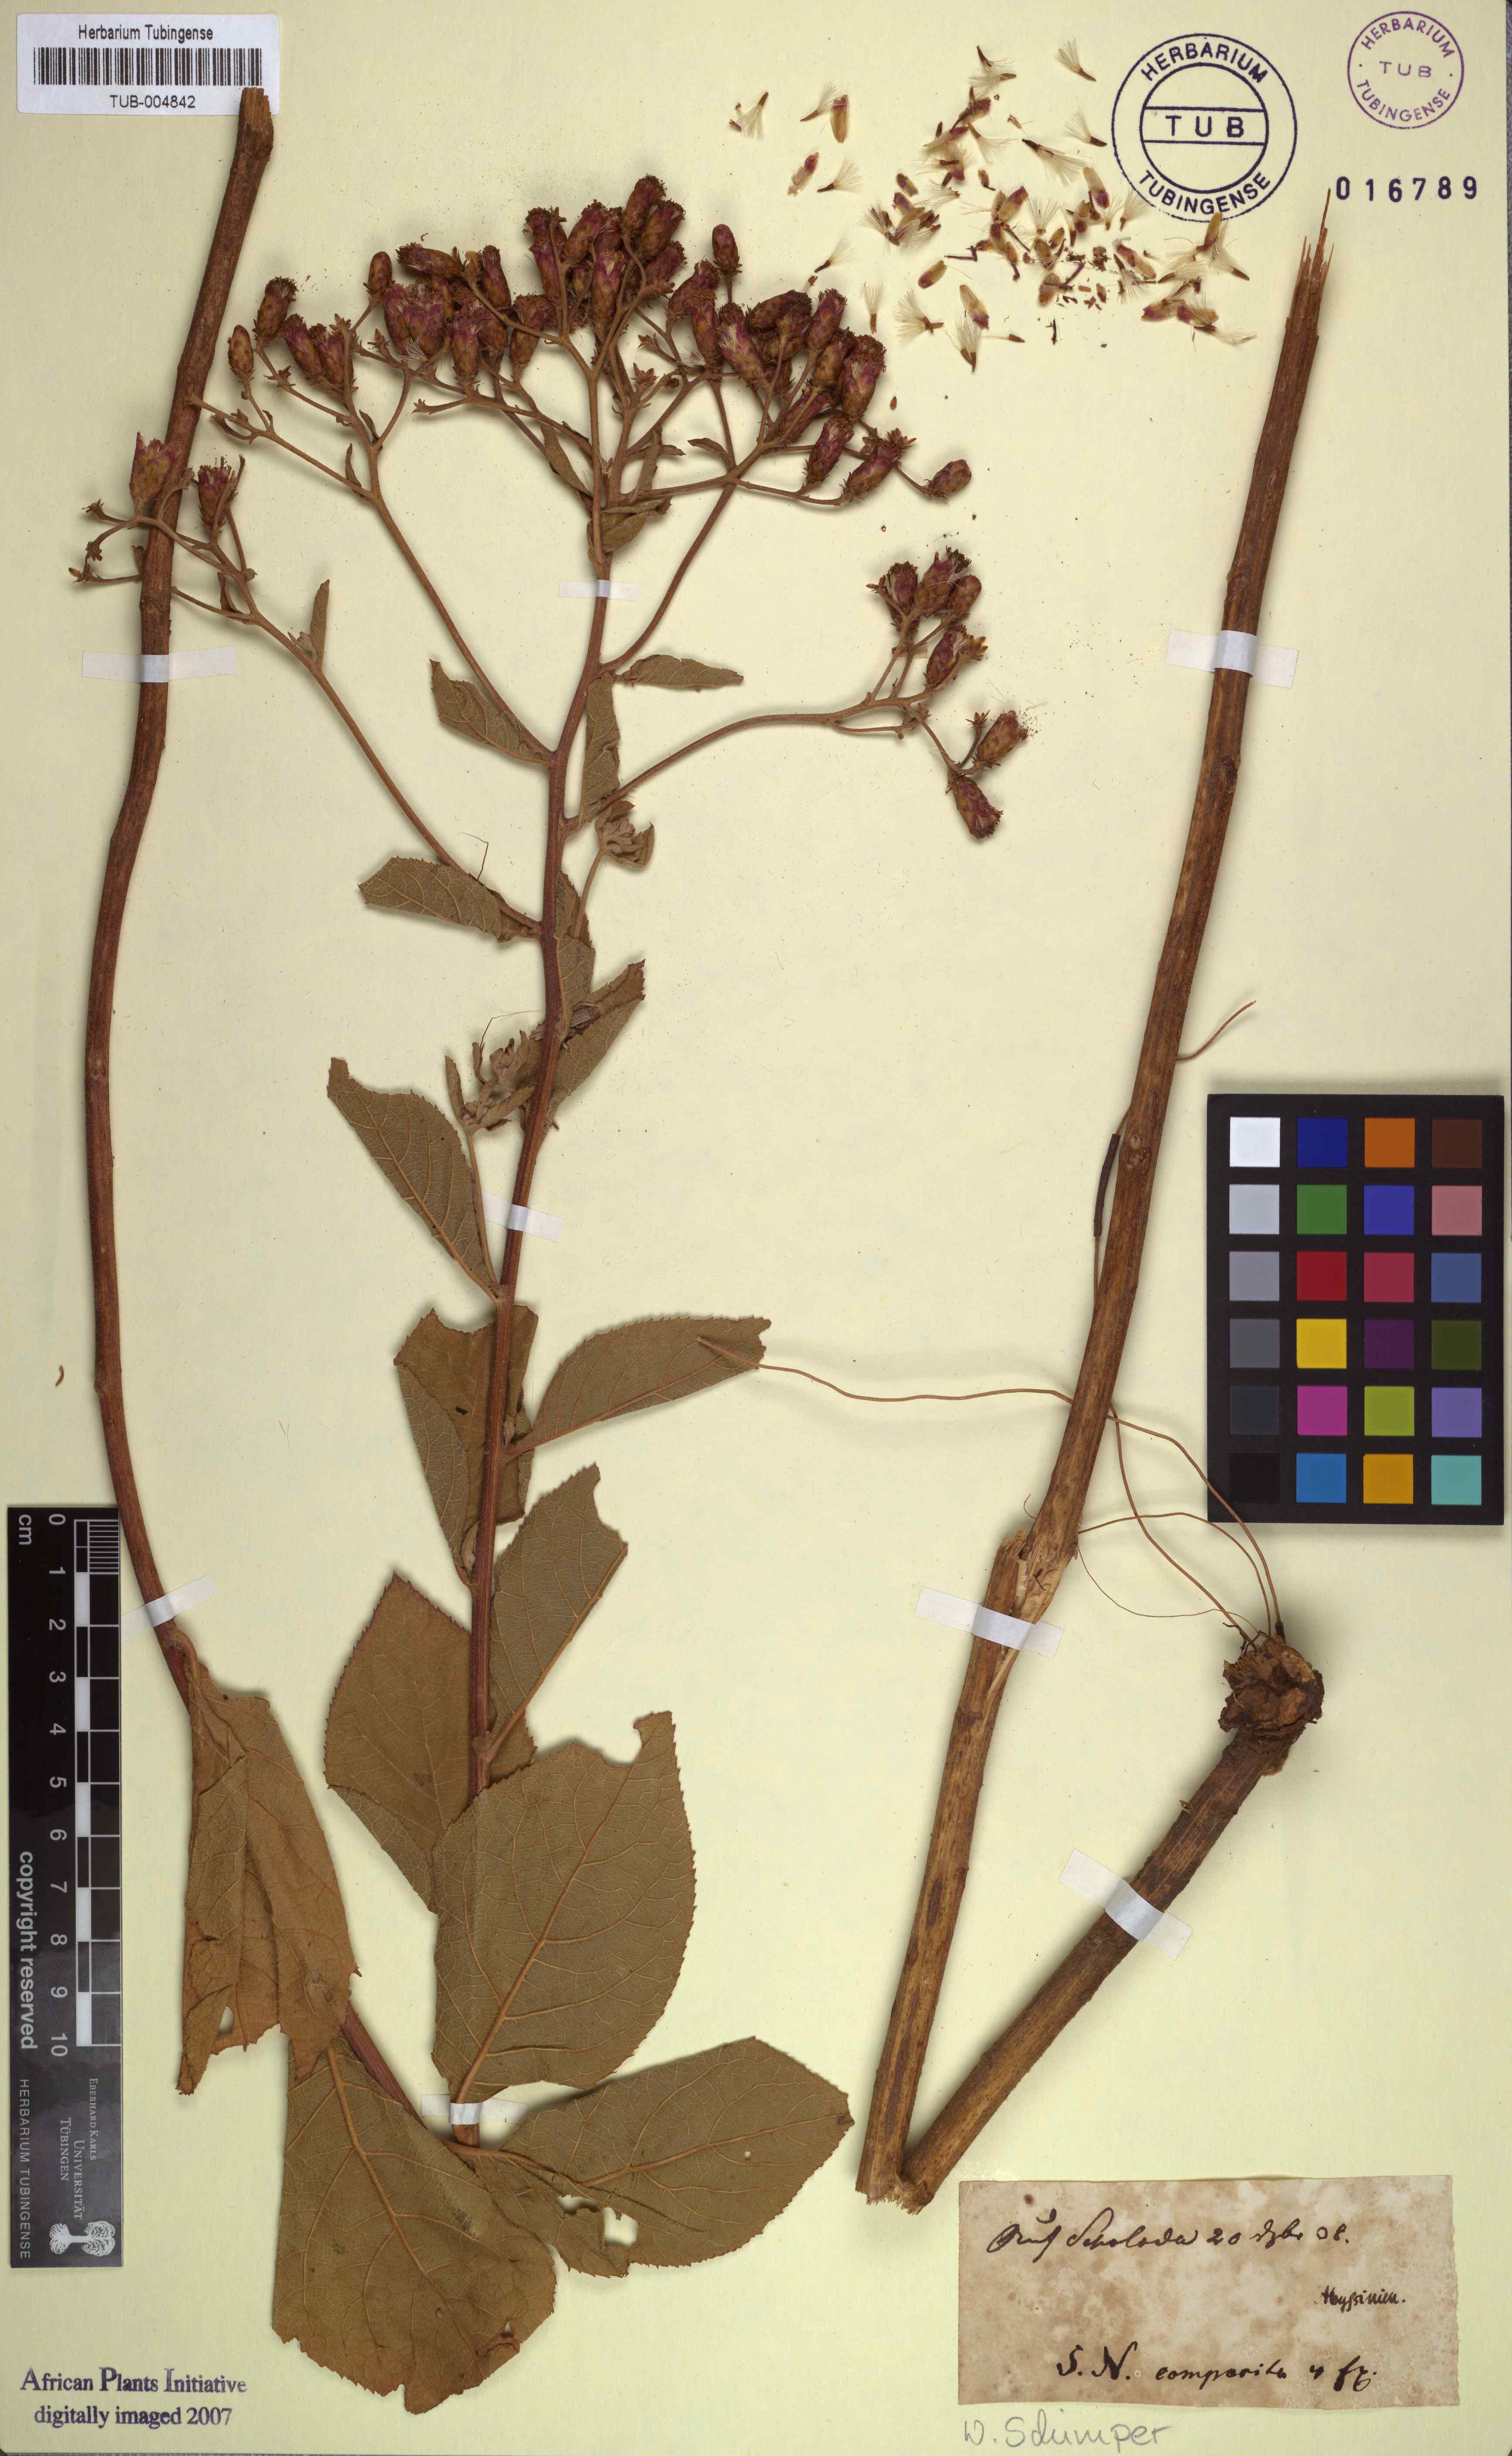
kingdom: Plantae
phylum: Tracheophyta
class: Magnoliopsida
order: Asterales
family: Asteraceae
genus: Ethulia
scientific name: Ethulia
